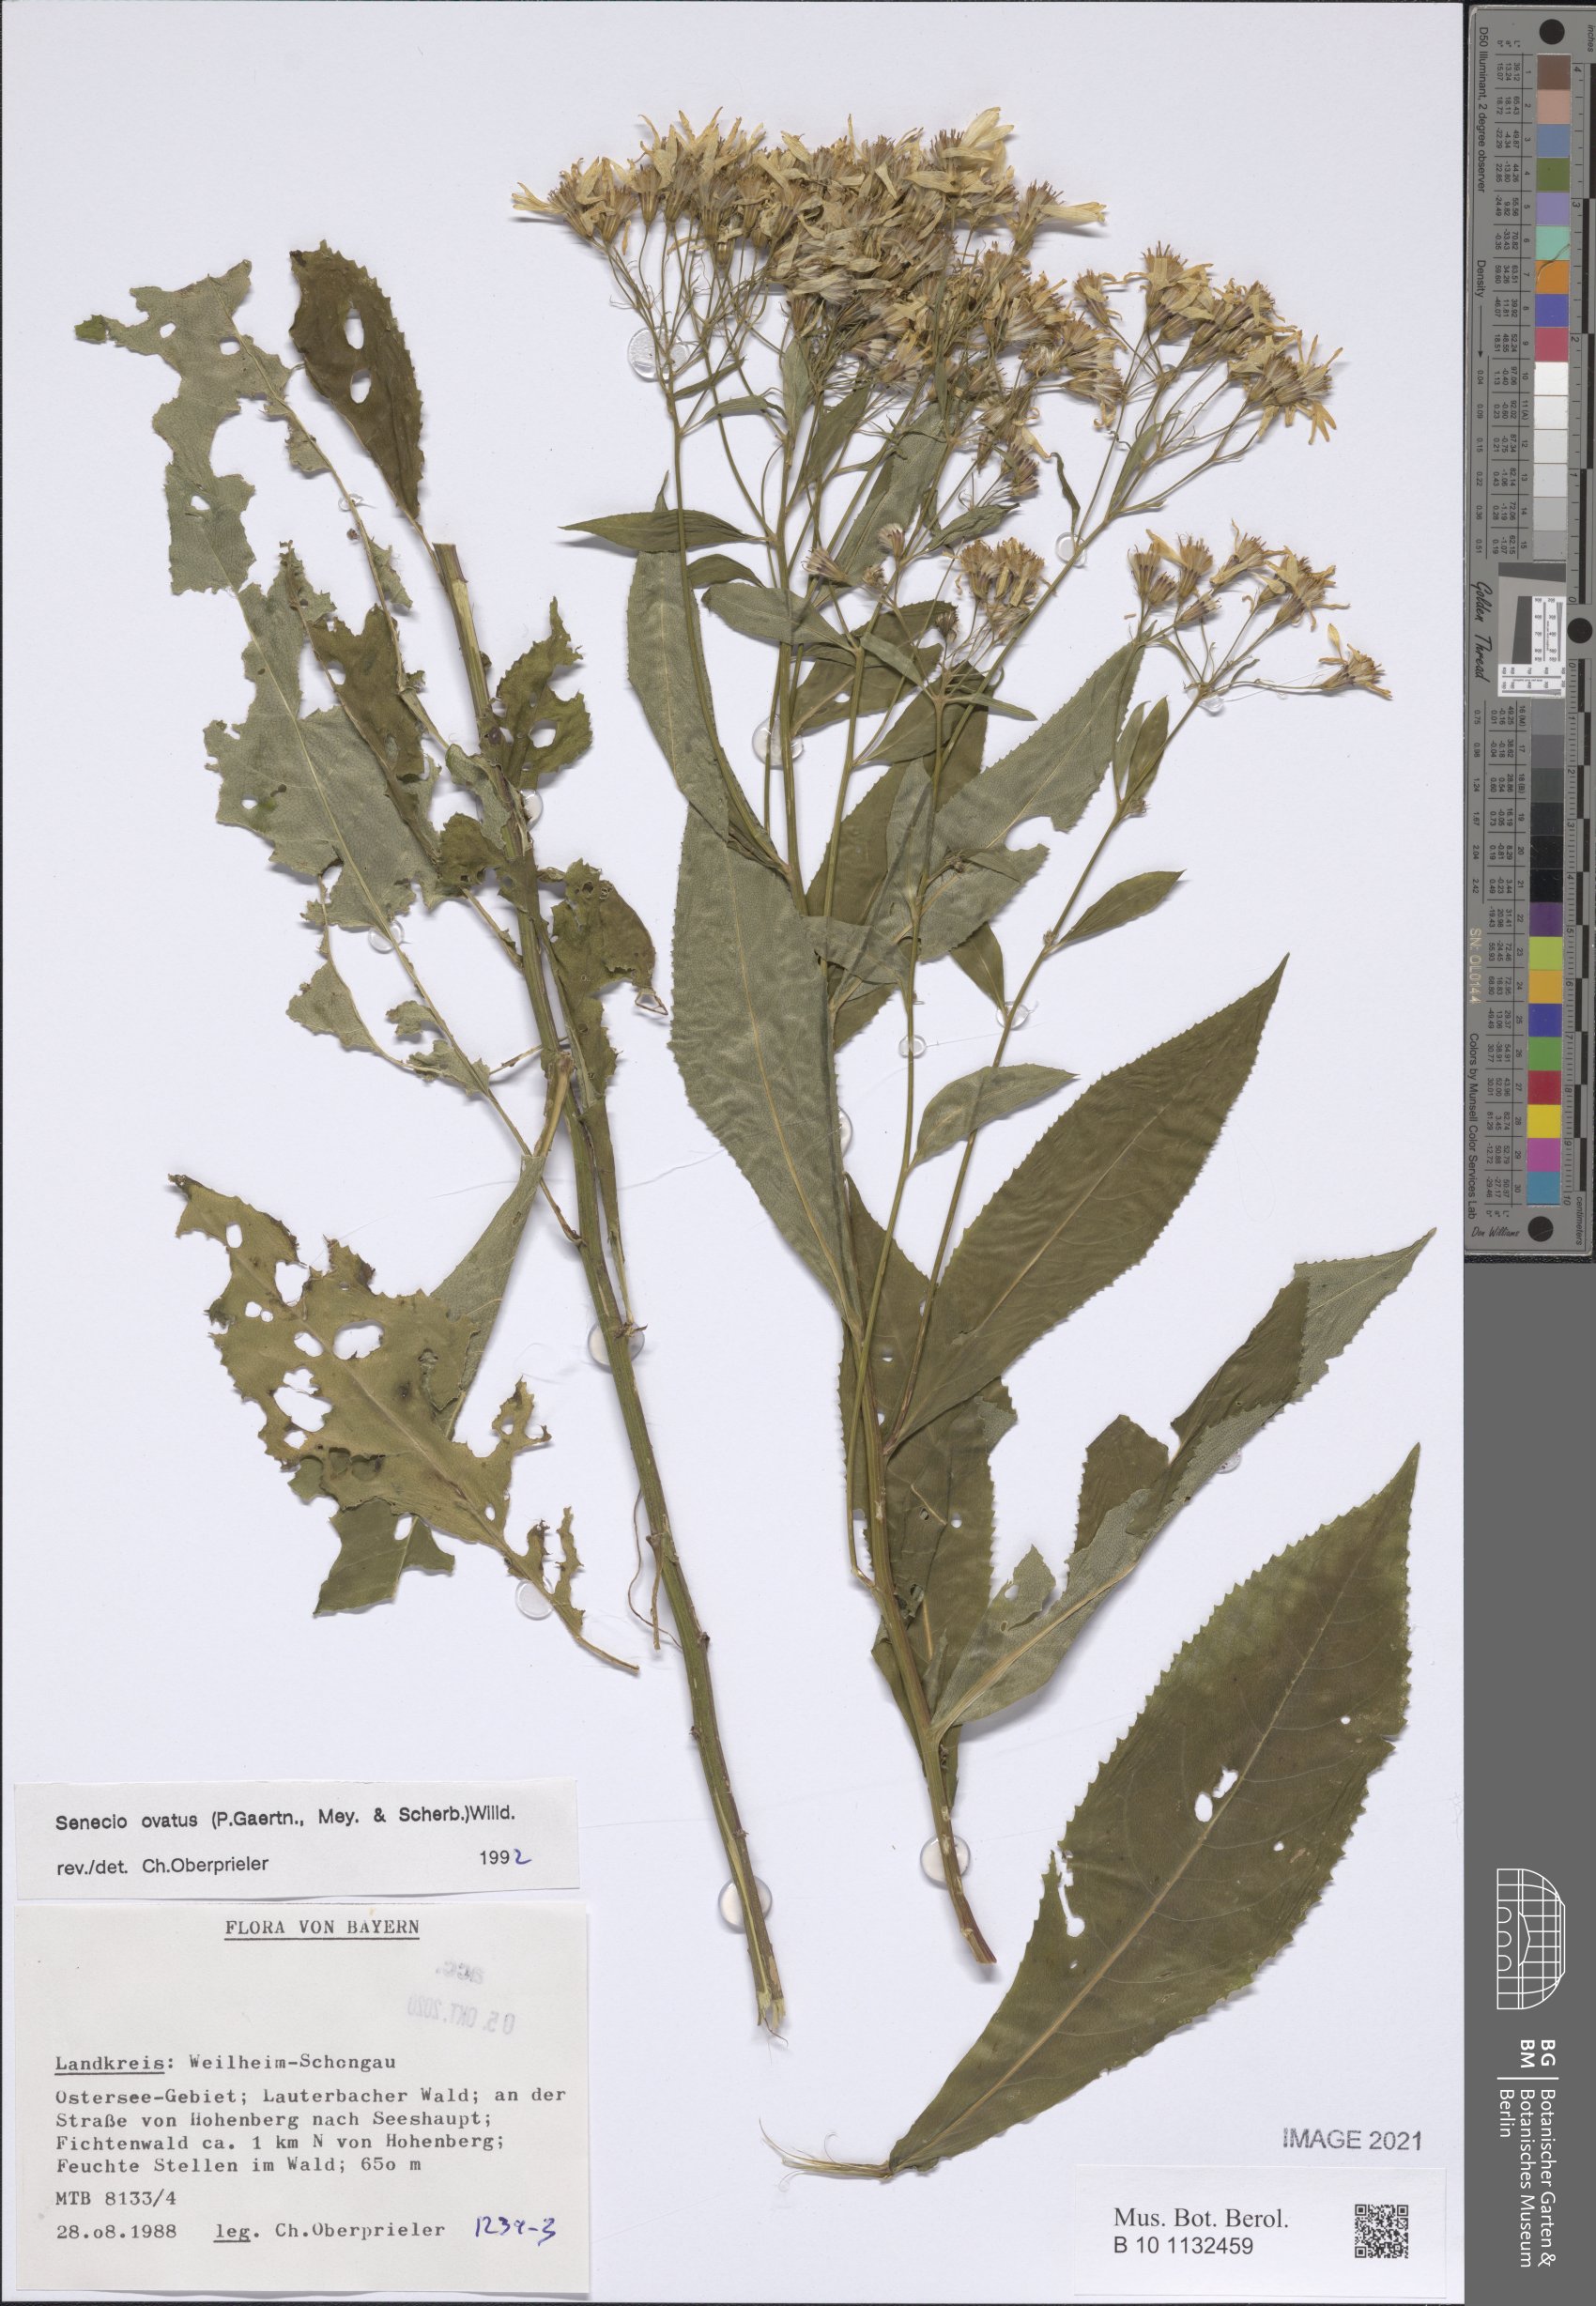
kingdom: Plantae
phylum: Tracheophyta
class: Magnoliopsida
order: Asterales
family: Asteraceae
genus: Senecio
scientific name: Senecio ovatus
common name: Wood ragwort
